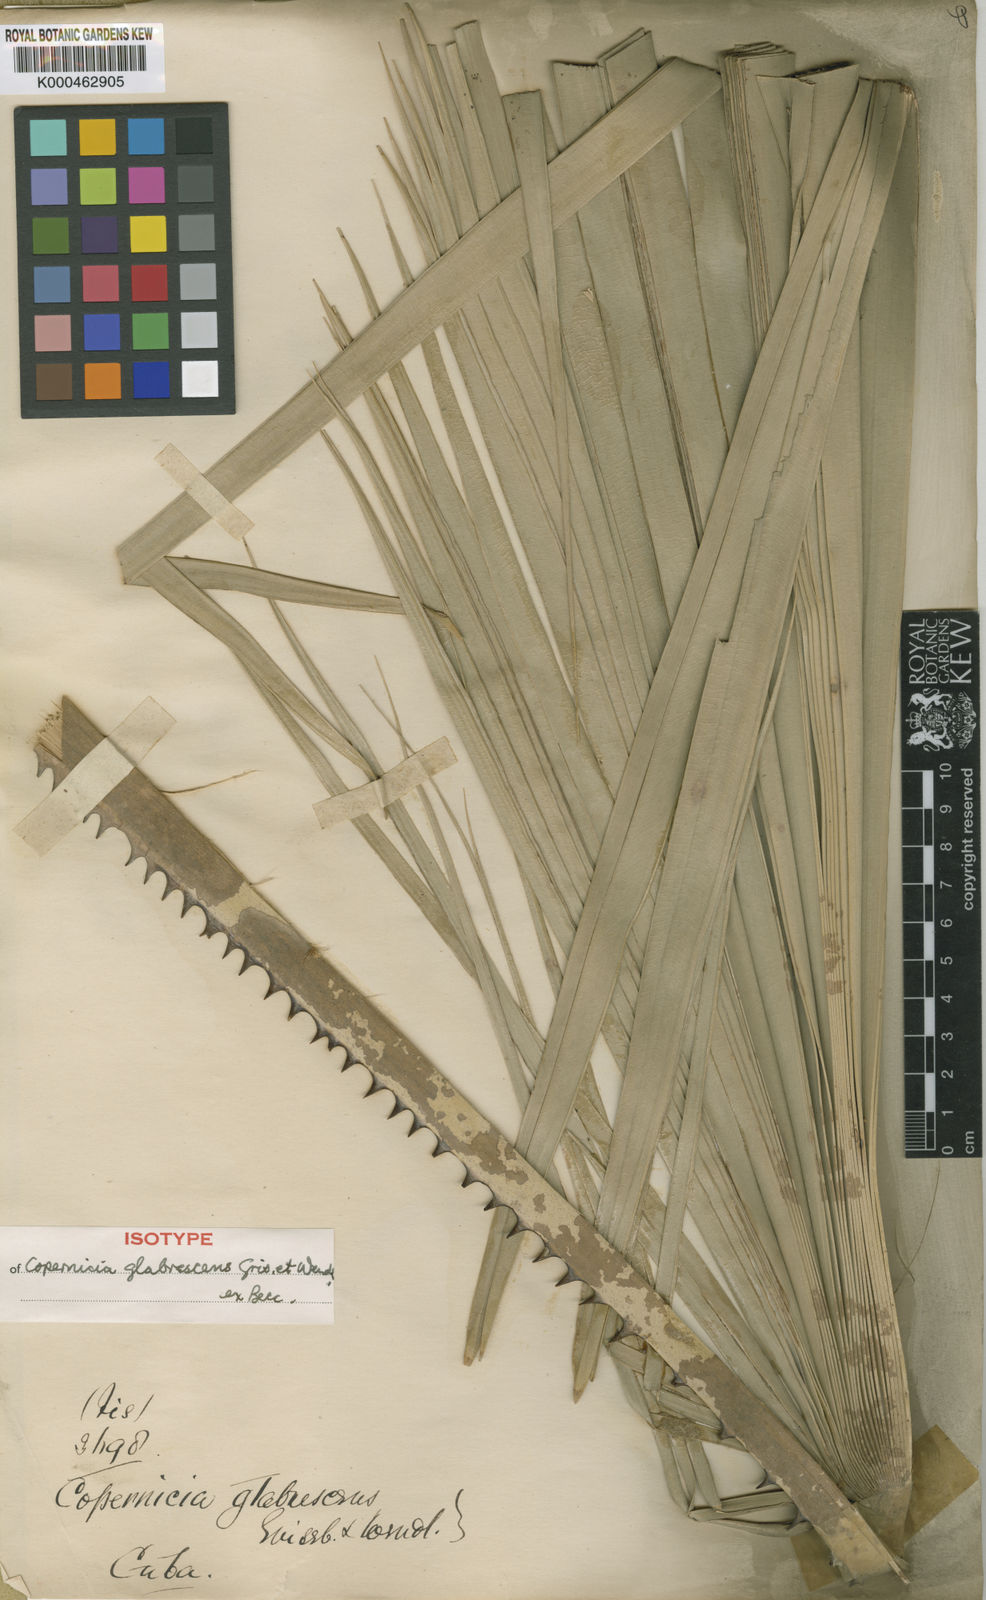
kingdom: Plantae
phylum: Tracheophyta
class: Liliopsida
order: Arecales
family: Arecaceae
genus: Copernicia
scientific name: Copernicia glabrescens
